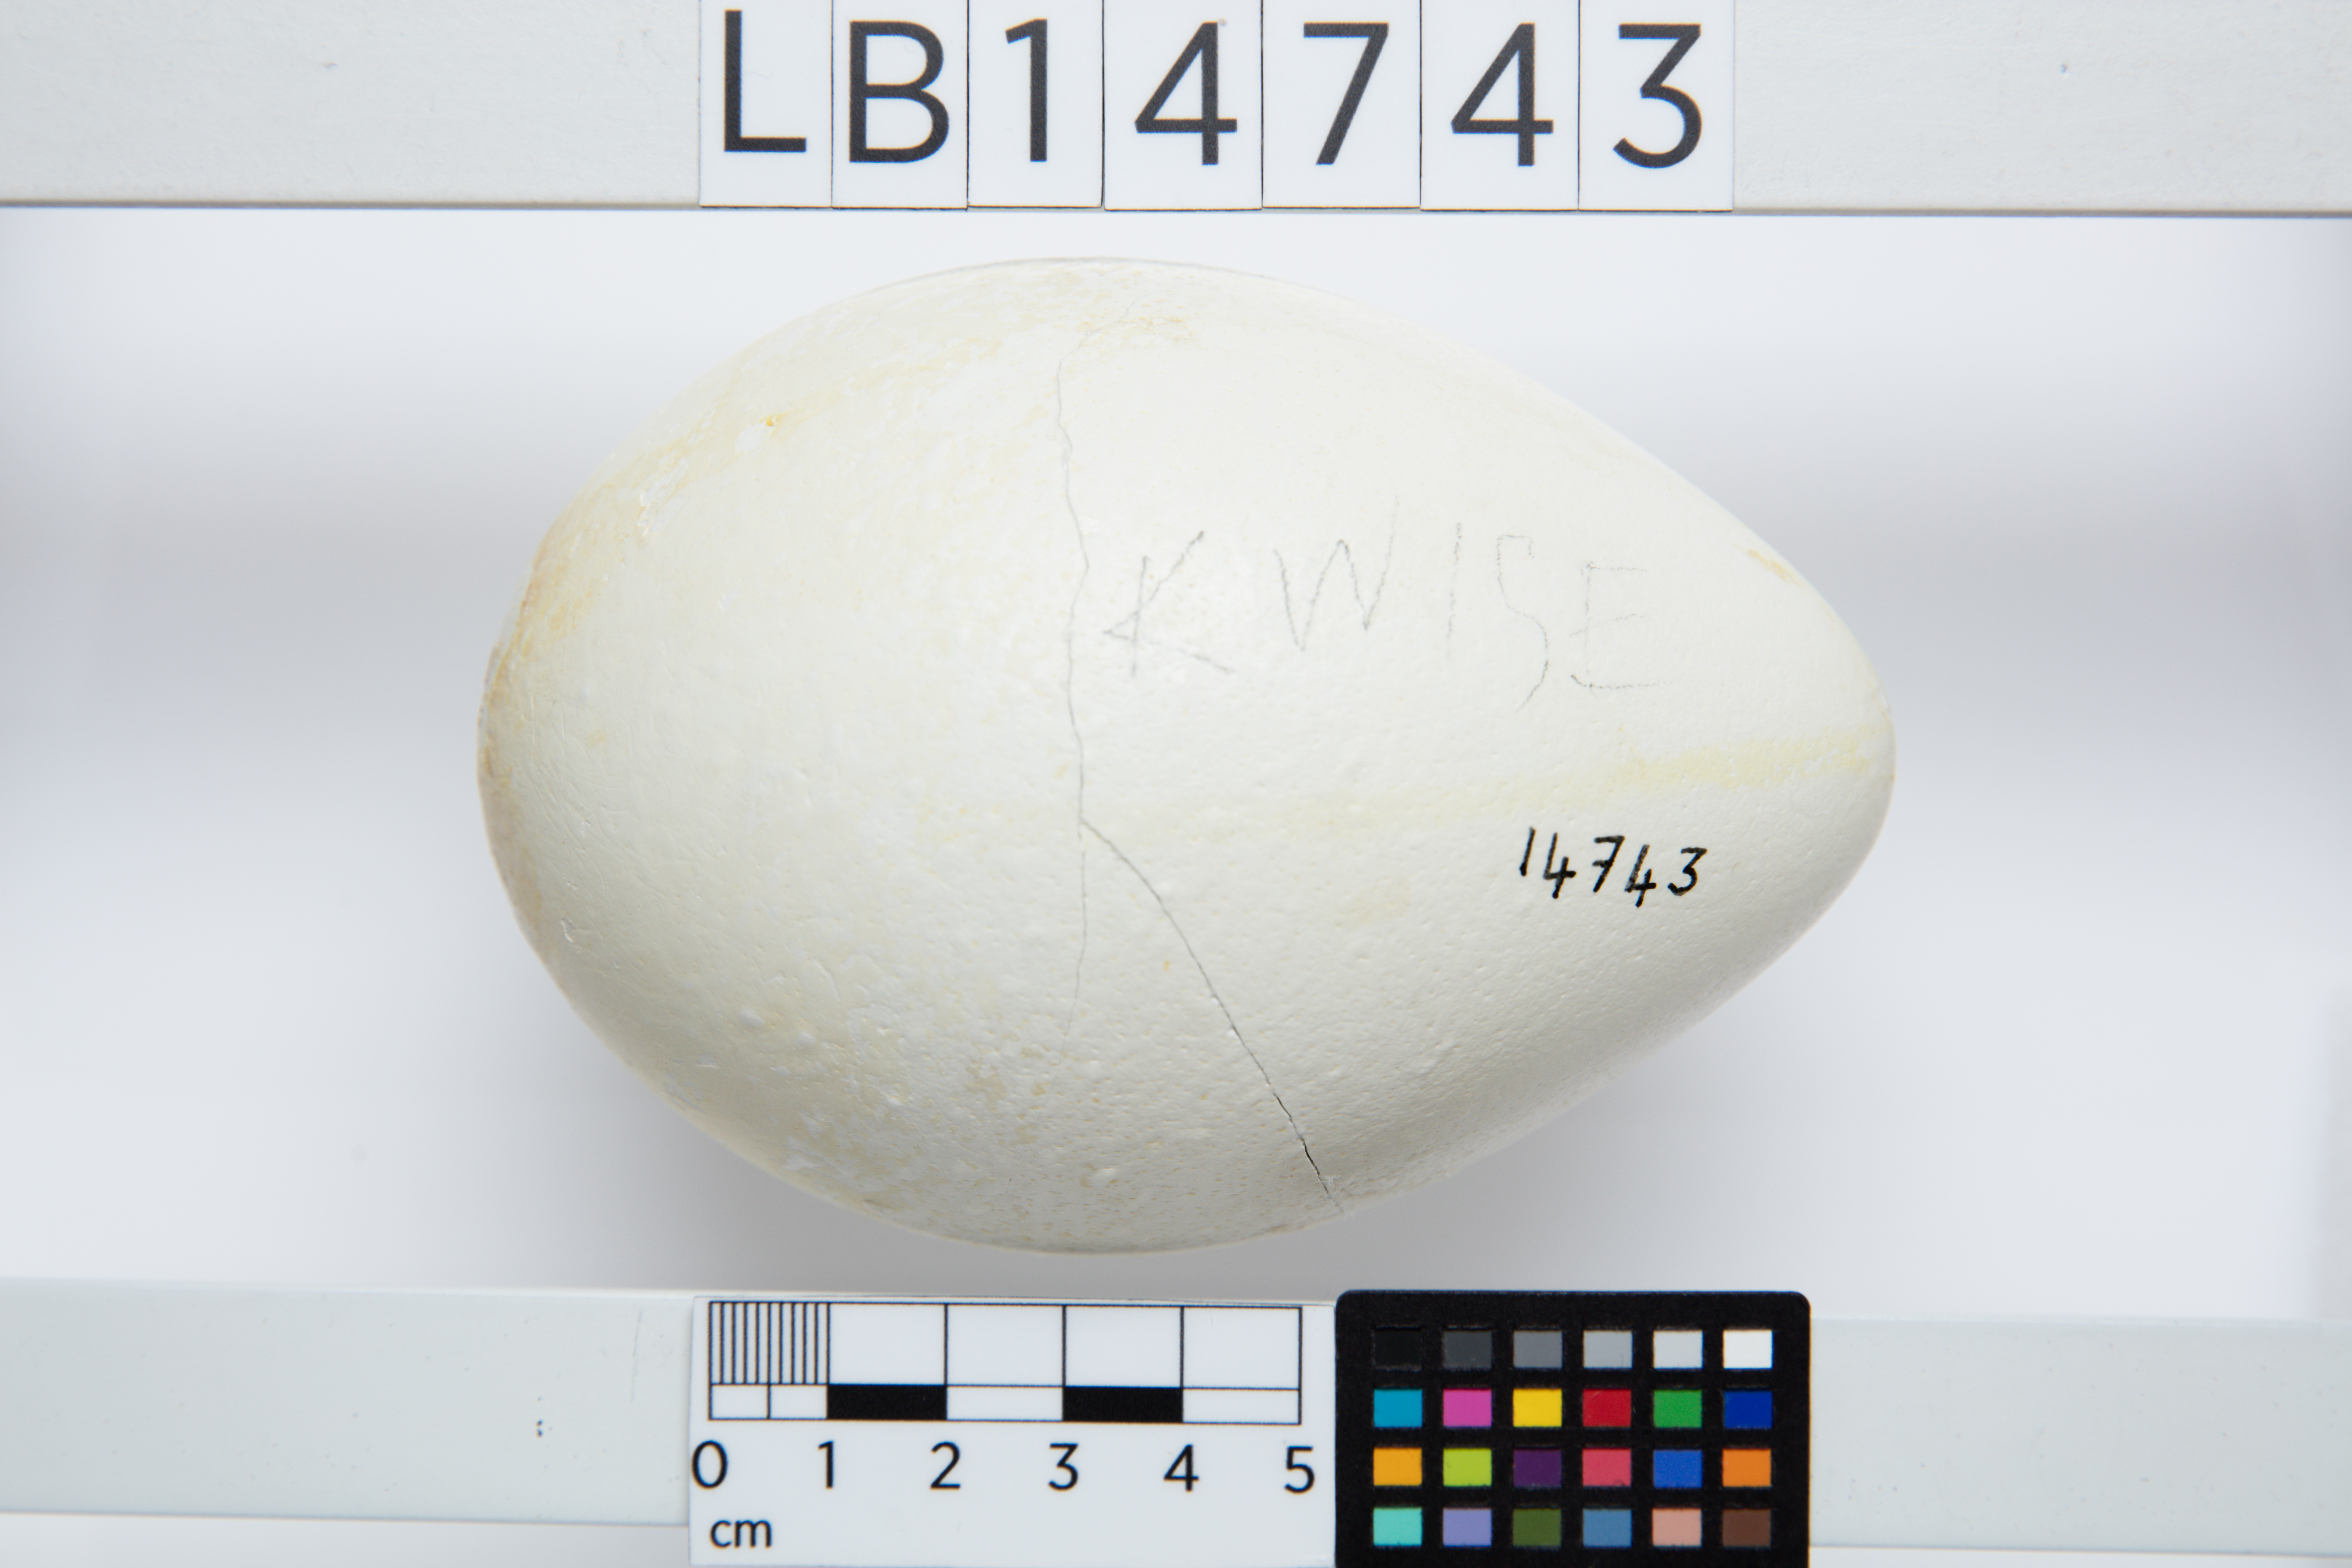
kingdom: Animalia
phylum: Chordata
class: Aves
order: Sphenisciformes
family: Spheniscidae
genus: Aptenodytes
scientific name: Aptenodytes forsteri
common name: Emperor penguin
